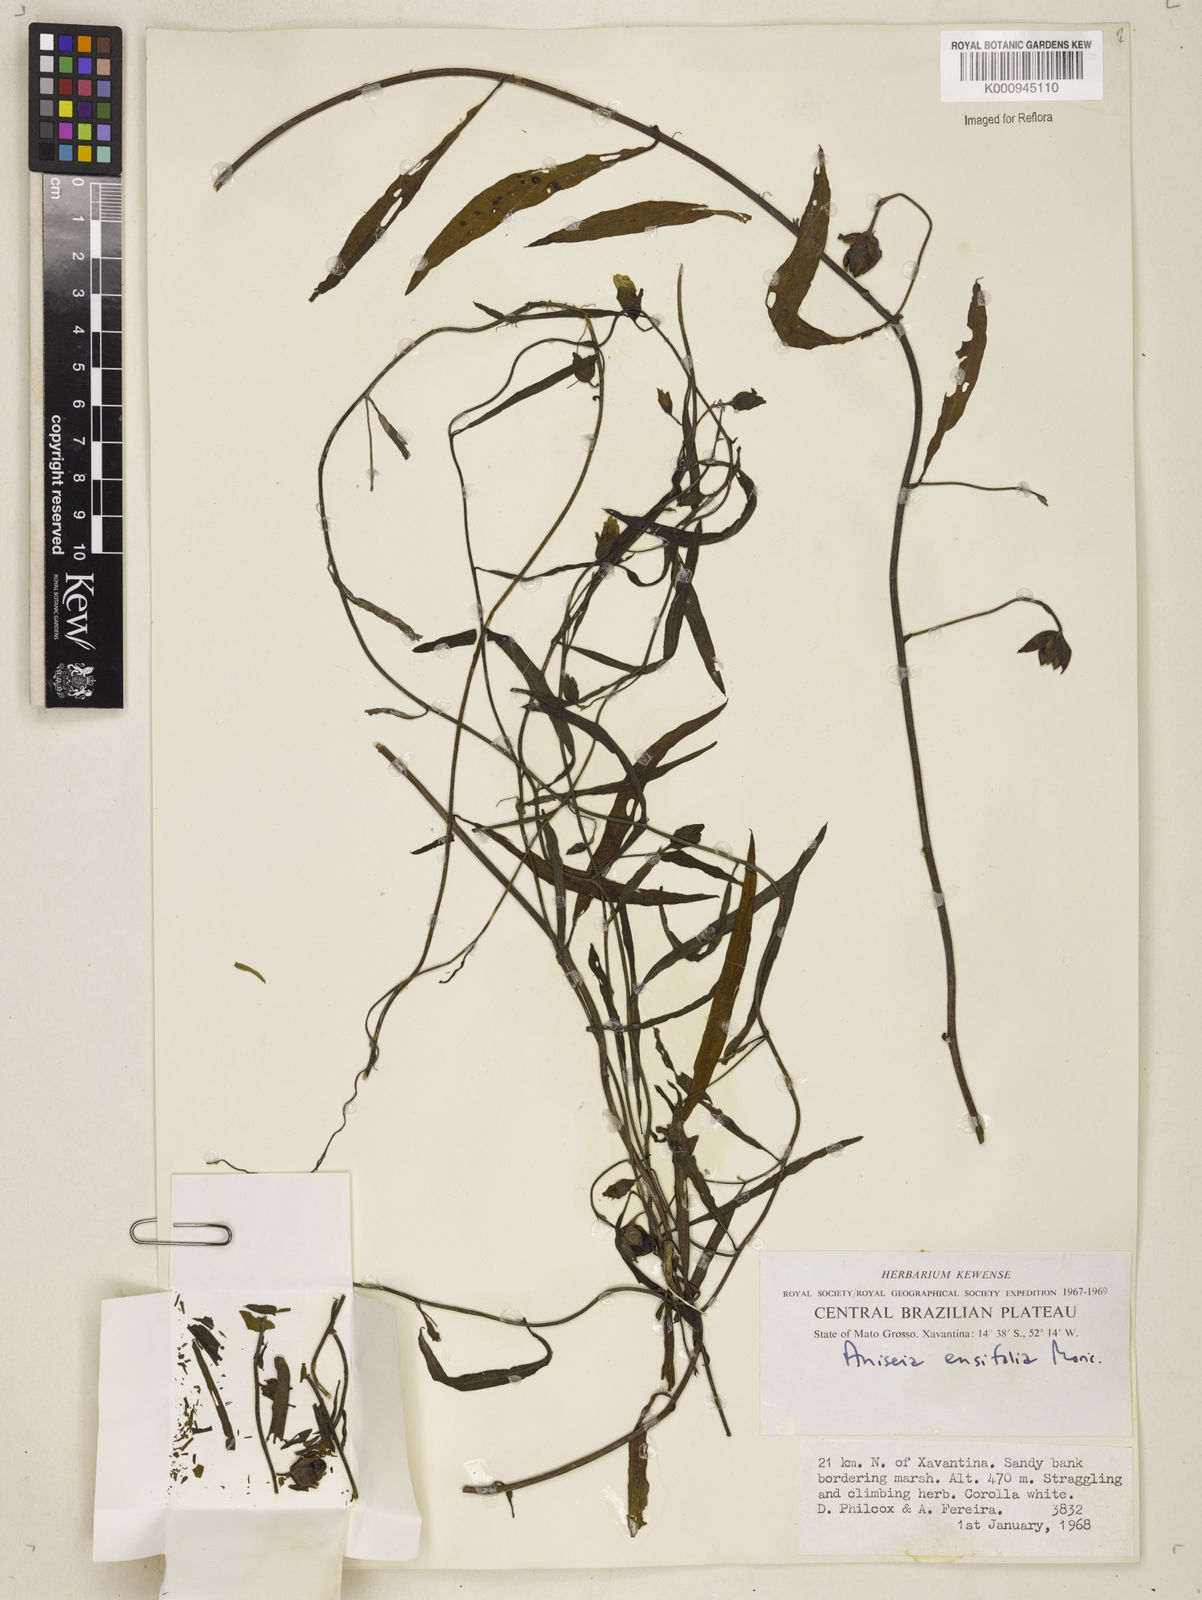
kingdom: Plantae
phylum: Tracheophyta
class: Magnoliopsida
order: Solanales
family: Convolvulaceae
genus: Aniseia
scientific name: Aniseia
